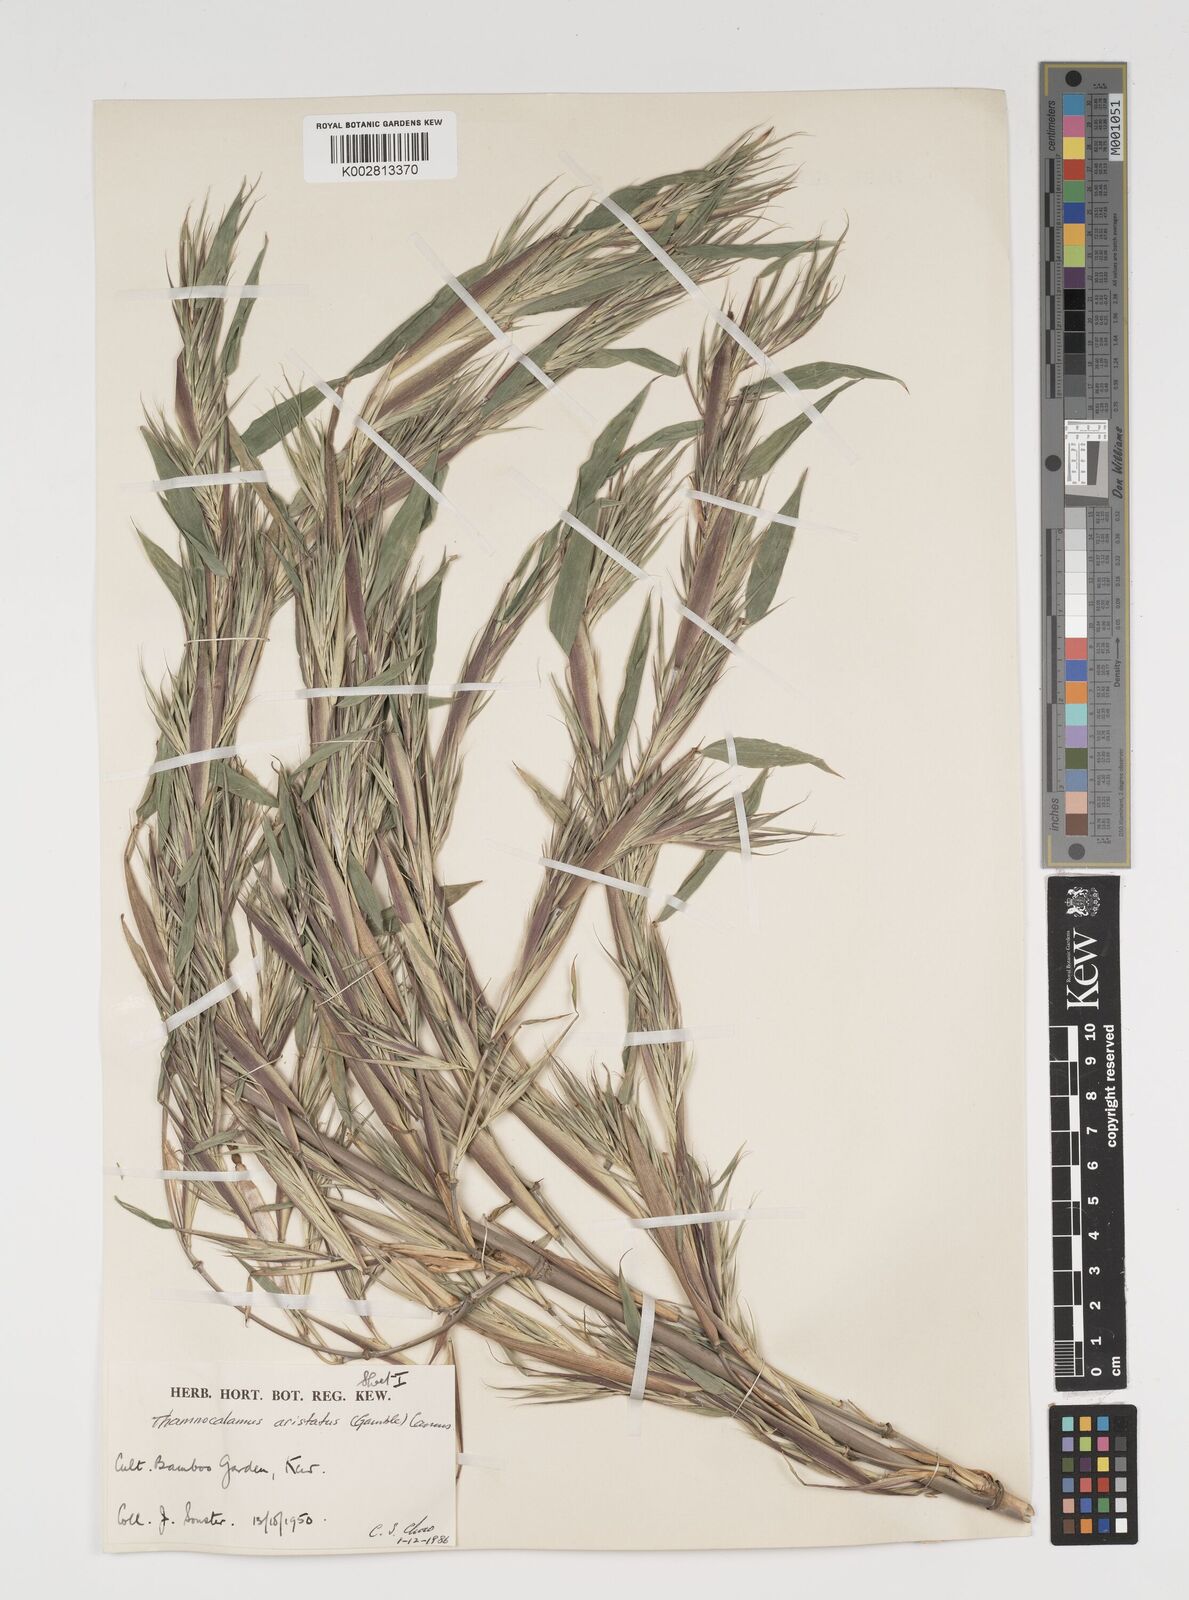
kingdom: Plantae
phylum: Tracheophyta
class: Liliopsida
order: Poales
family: Poaceae
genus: Thamnocalamus
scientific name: Thamnocalamus spathiflorus
